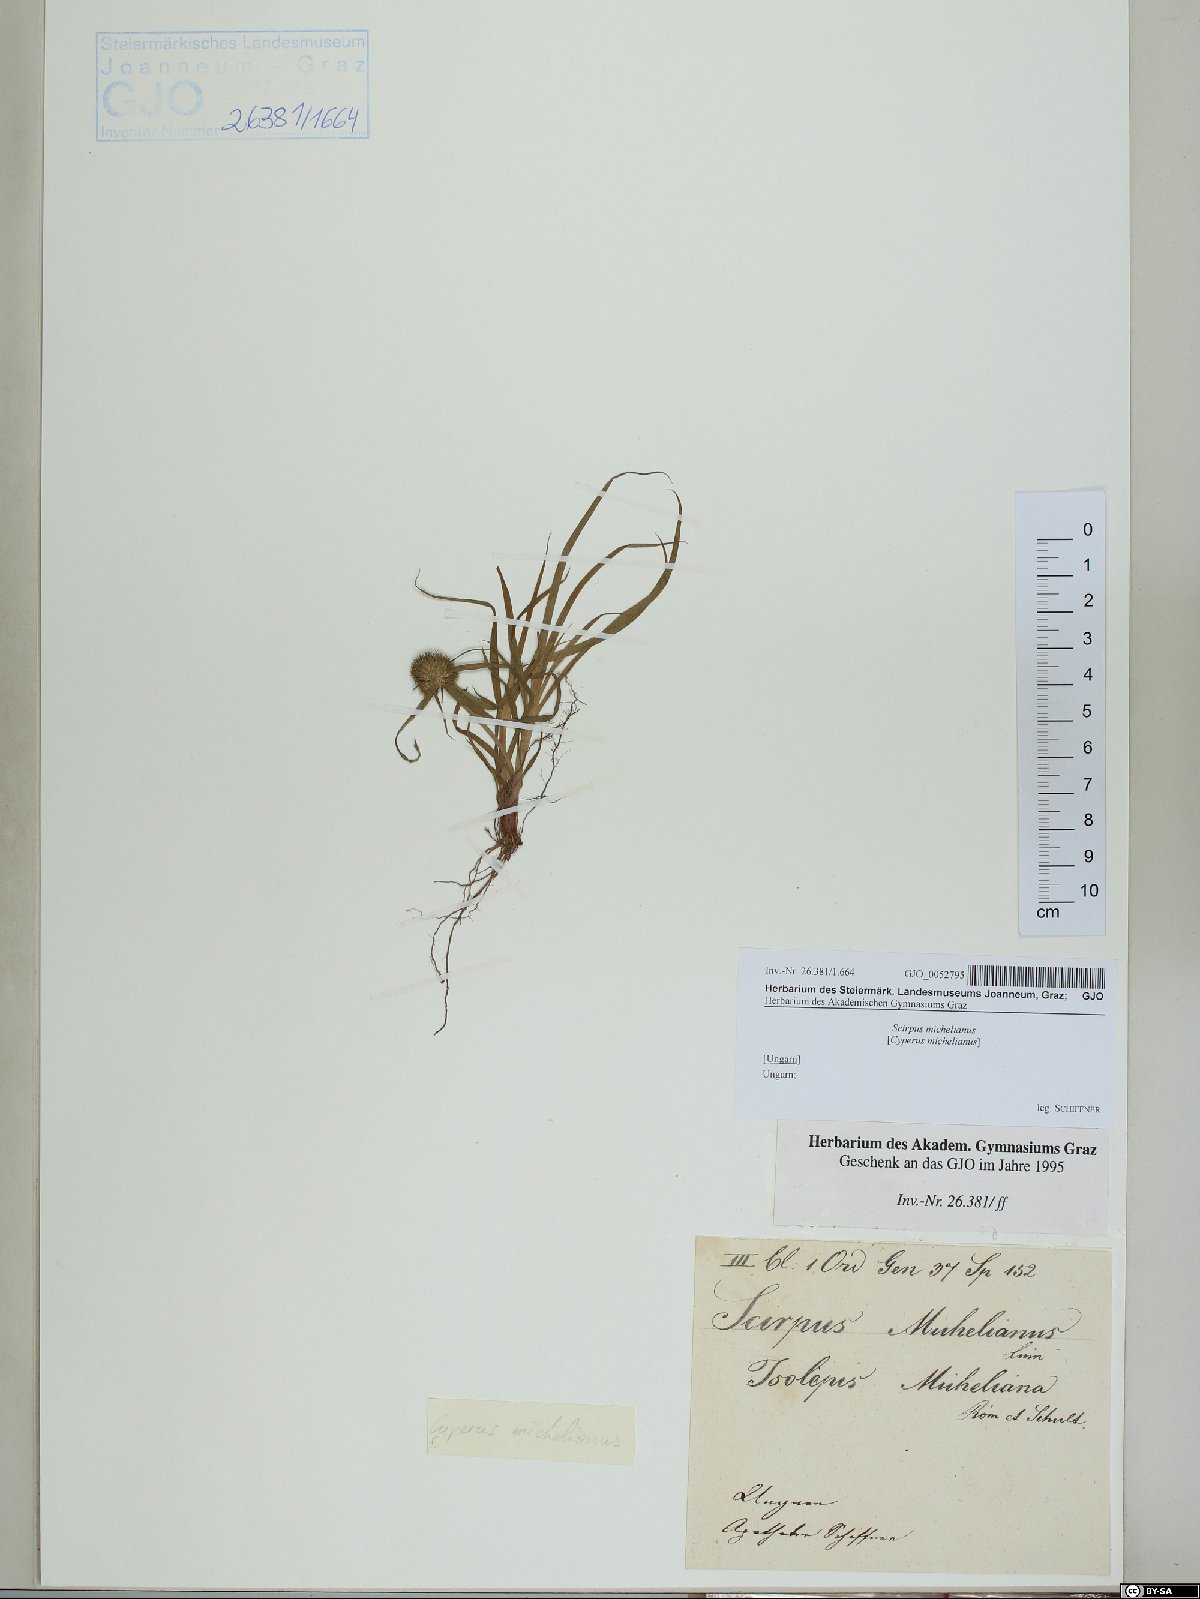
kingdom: Plantae
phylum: Tracheophyta
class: Liliopsida
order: Poales
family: Cyperaceae
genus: Cyperus
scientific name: Cyperus michelianus
